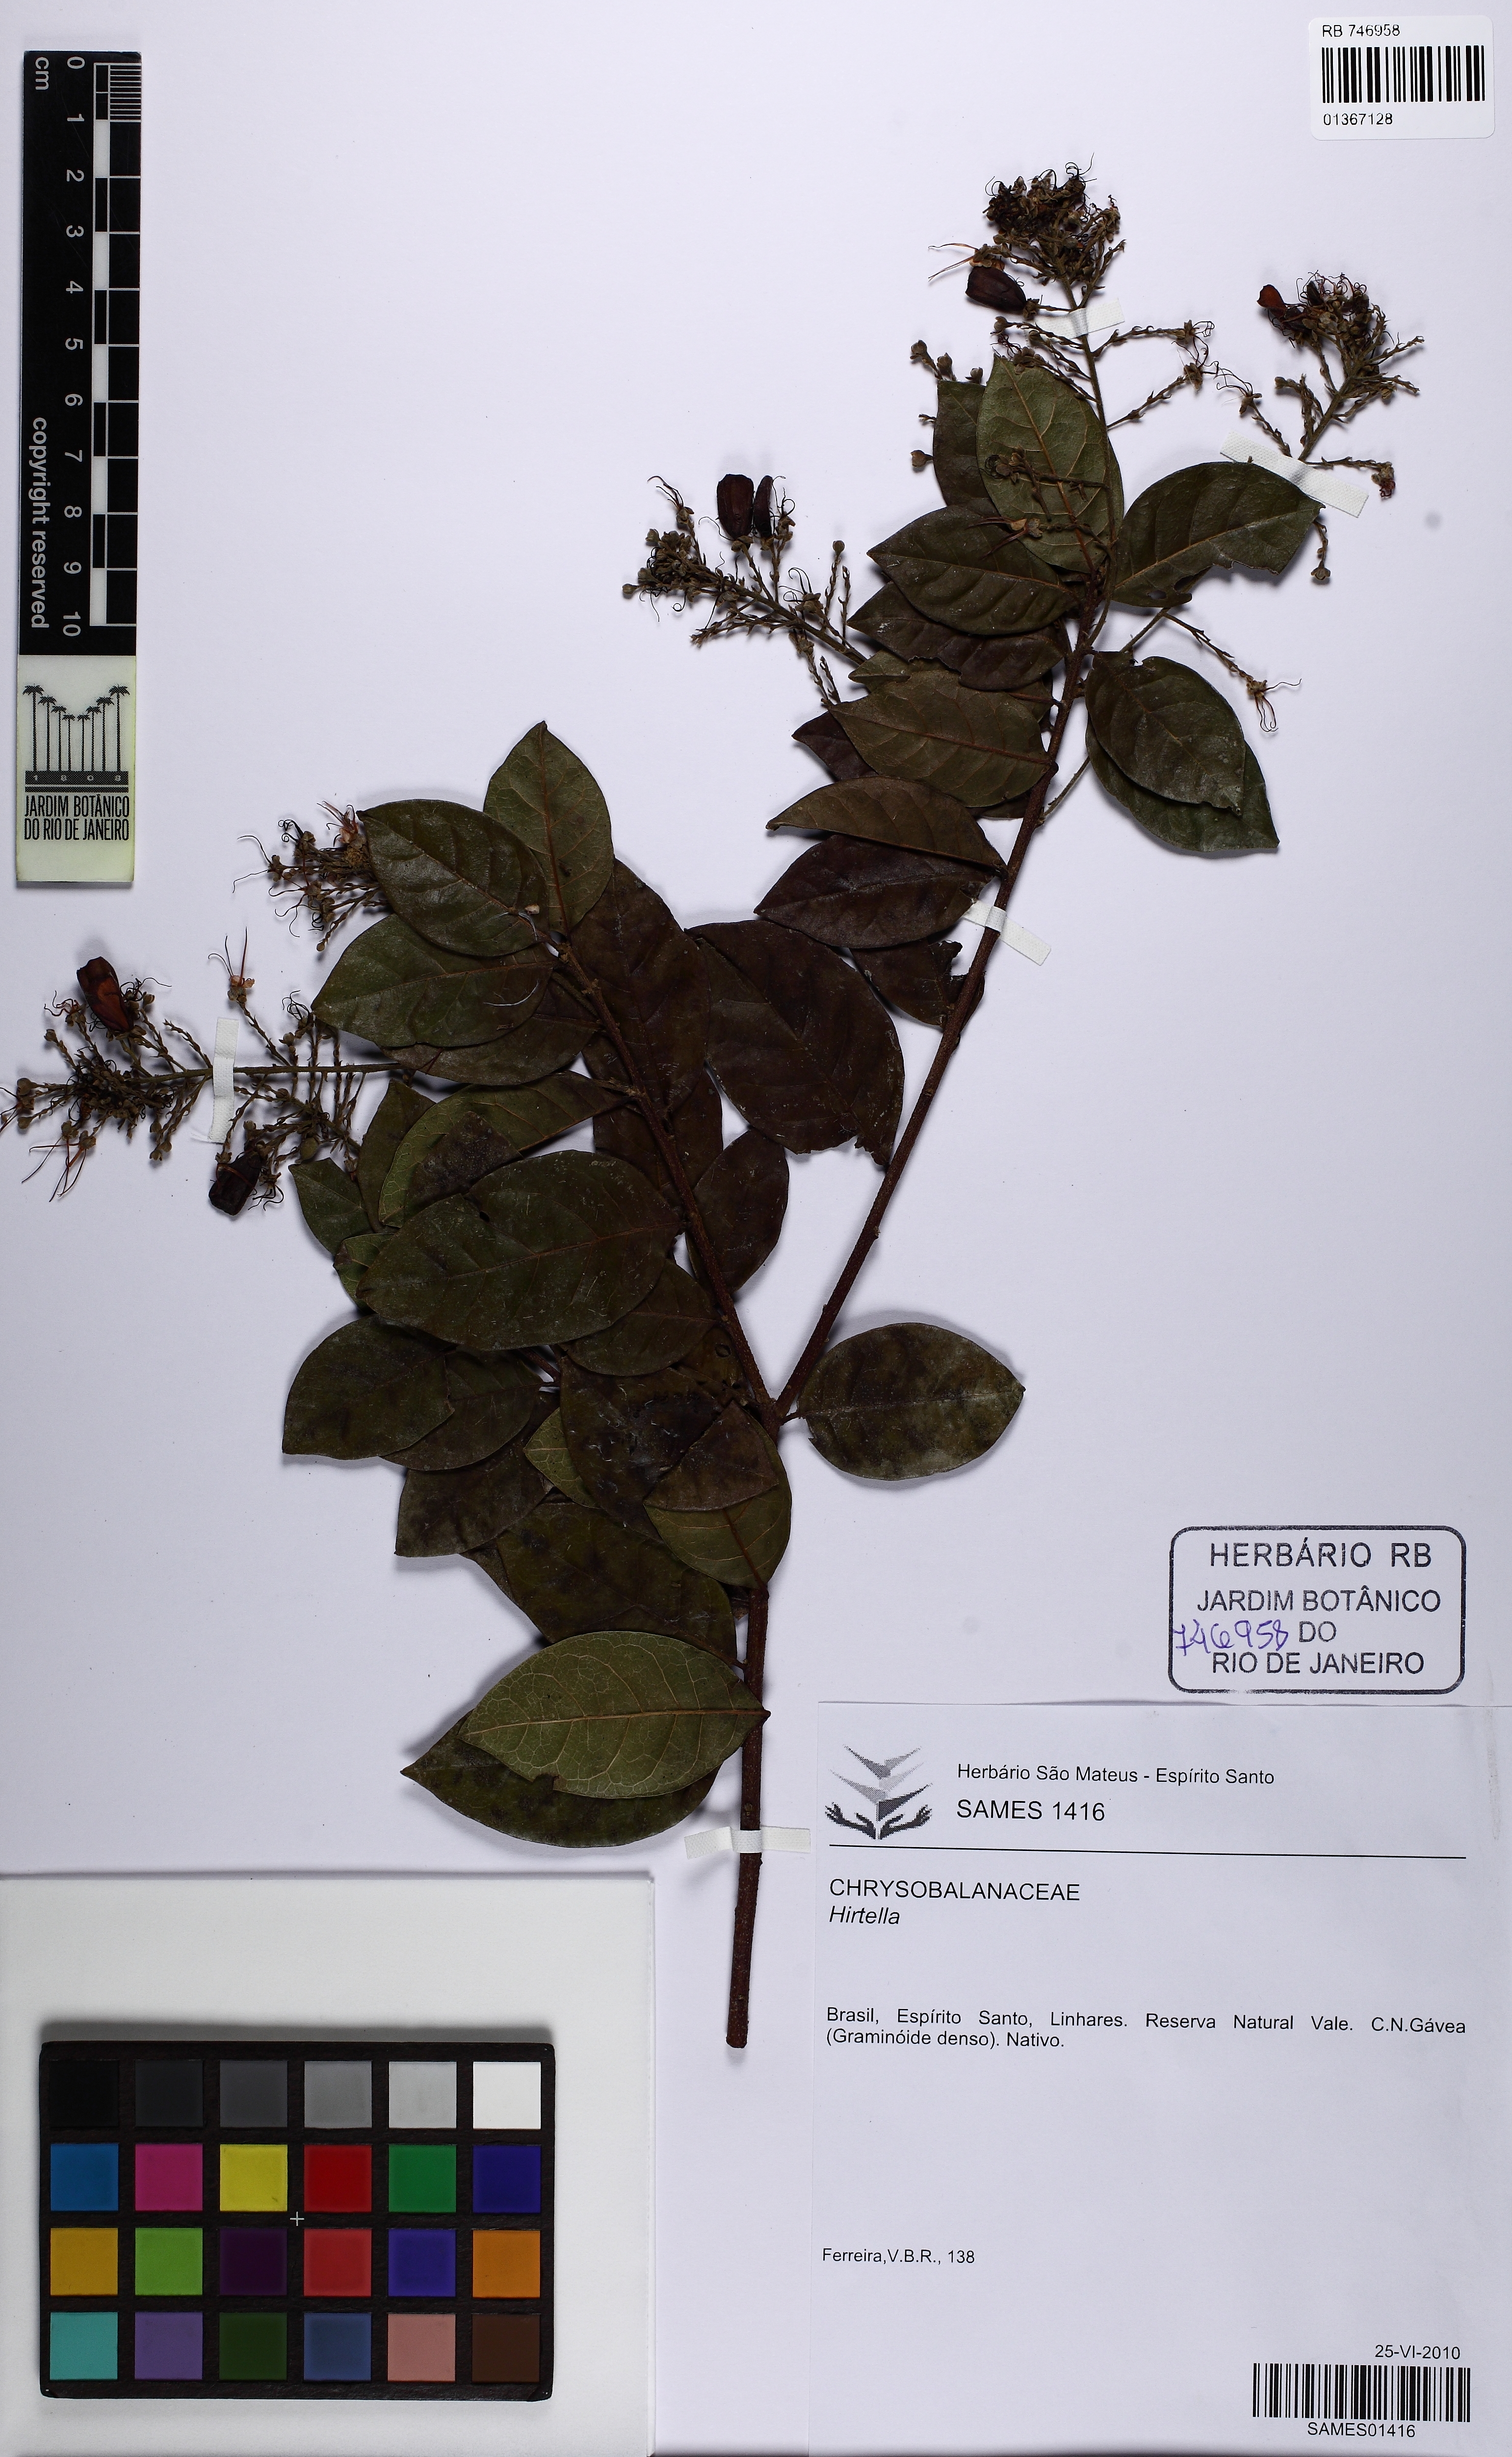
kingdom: Plantae
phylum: Tracheophyta
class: Magnoliopsida
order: Malpighiales
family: Chrysobalanaceae
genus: Hirtella
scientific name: Hirtella triandra
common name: Hairy plum
